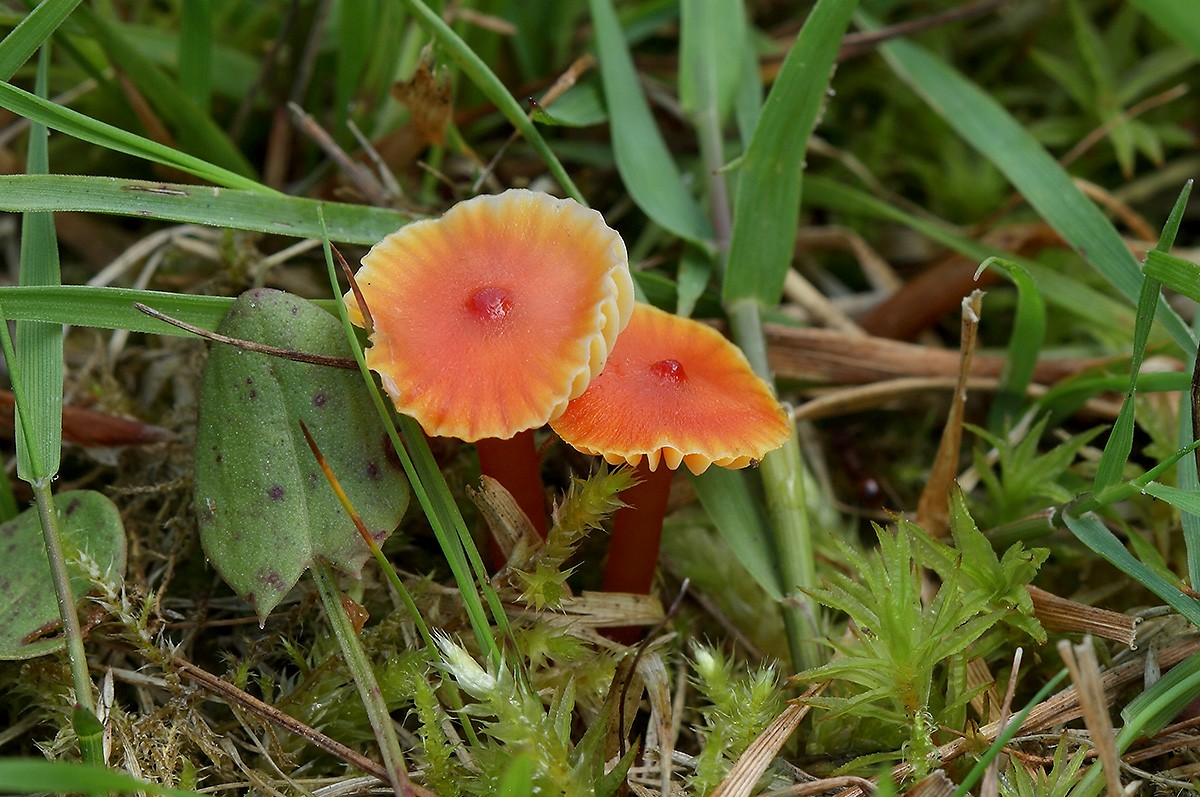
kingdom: Fungi
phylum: Basidiomycota
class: Agaricomycetes
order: Agaricales
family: Hygrophoraceae
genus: Hygrocybe
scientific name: Hygrocybe subpapillata
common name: papil-vokshat
